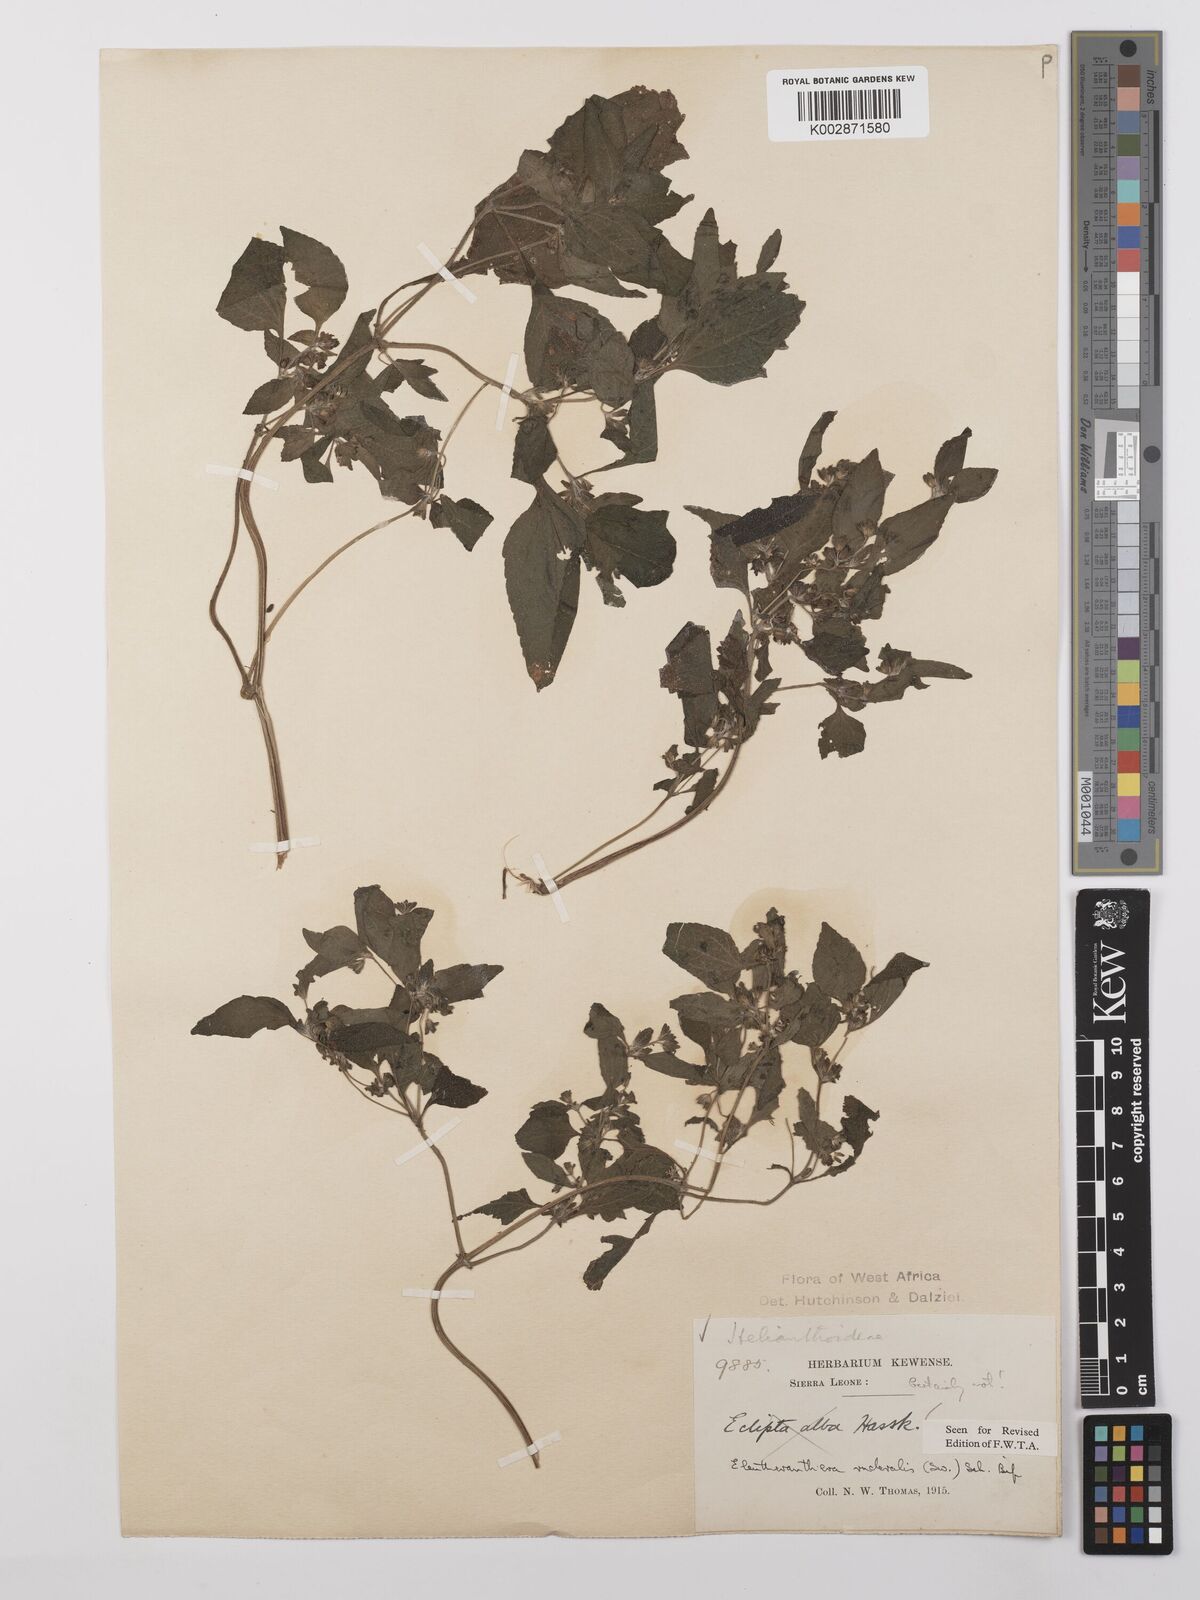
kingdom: Plantae
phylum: Tracheophyta
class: Magnoliopsida
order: Asterales
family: Asteraceae
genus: Eleutheranthera
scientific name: Eleutheranthera ruderalis
